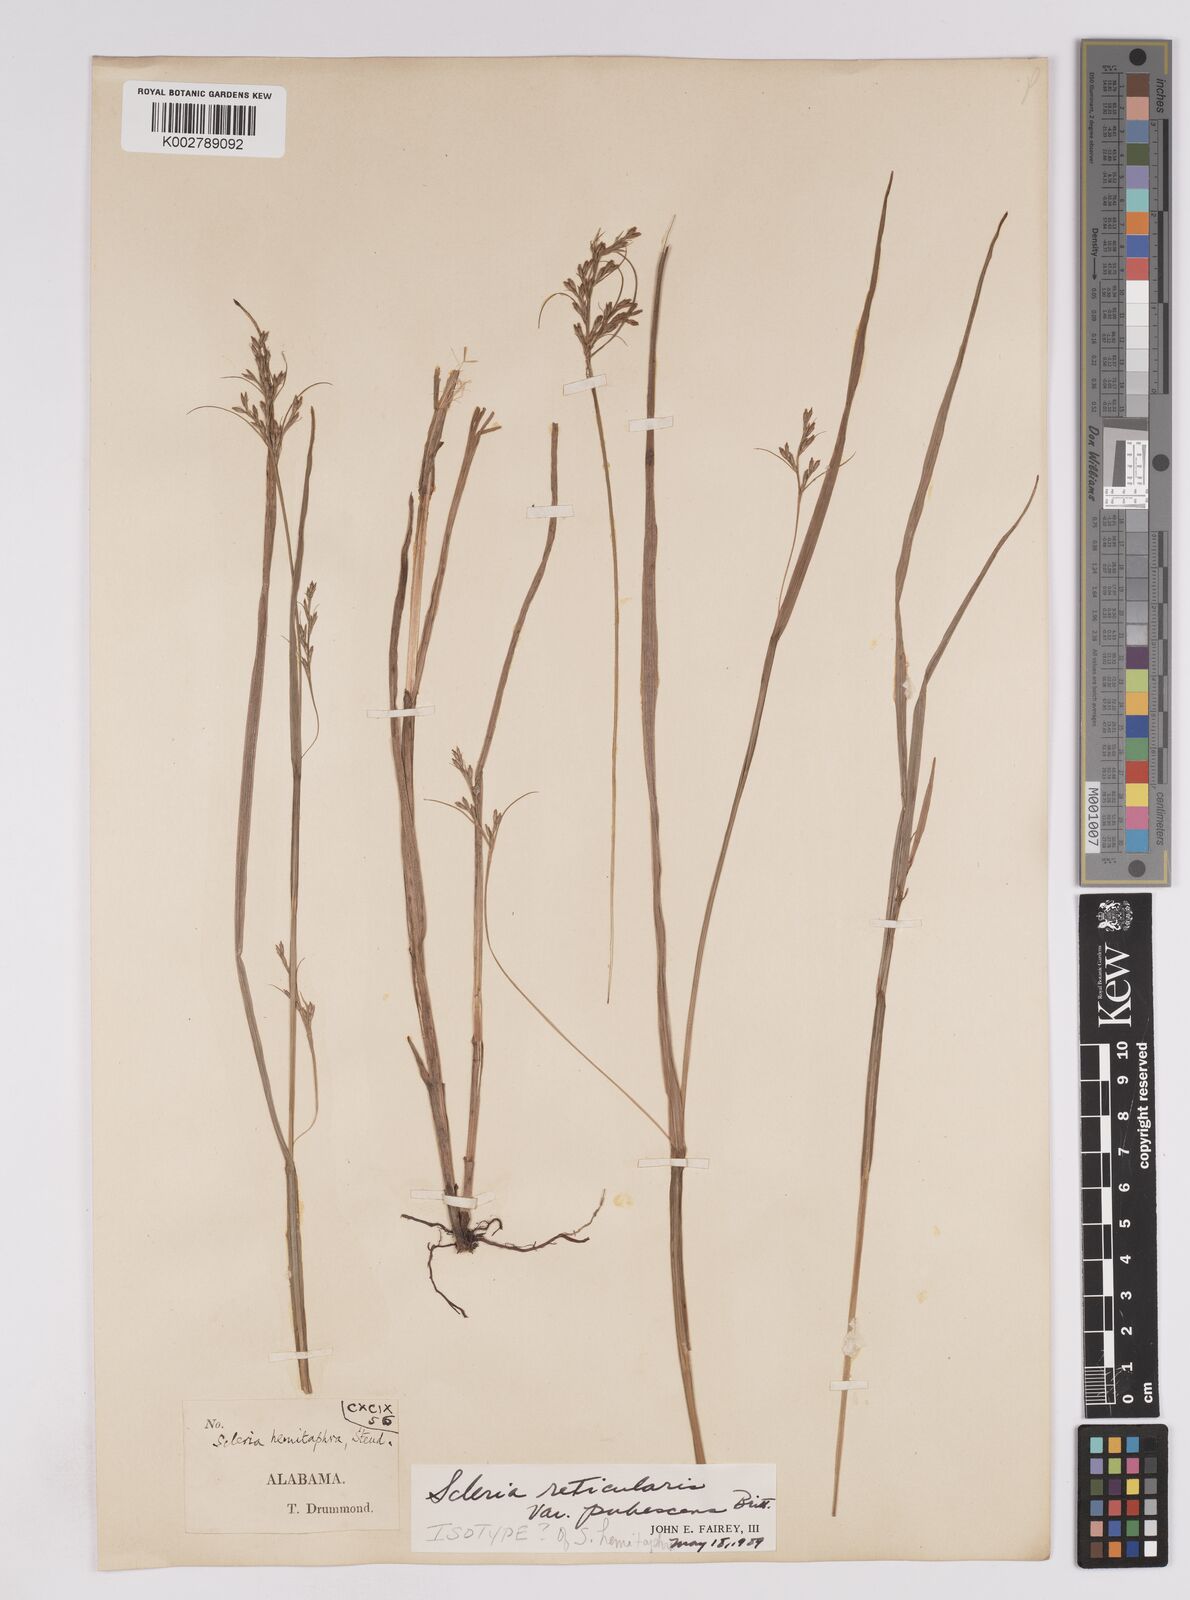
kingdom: Plantae
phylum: Tracheophyta
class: Liliopsida
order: Poales
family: Cyperaceae
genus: Scleria
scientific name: Scleria muehlenbergii
